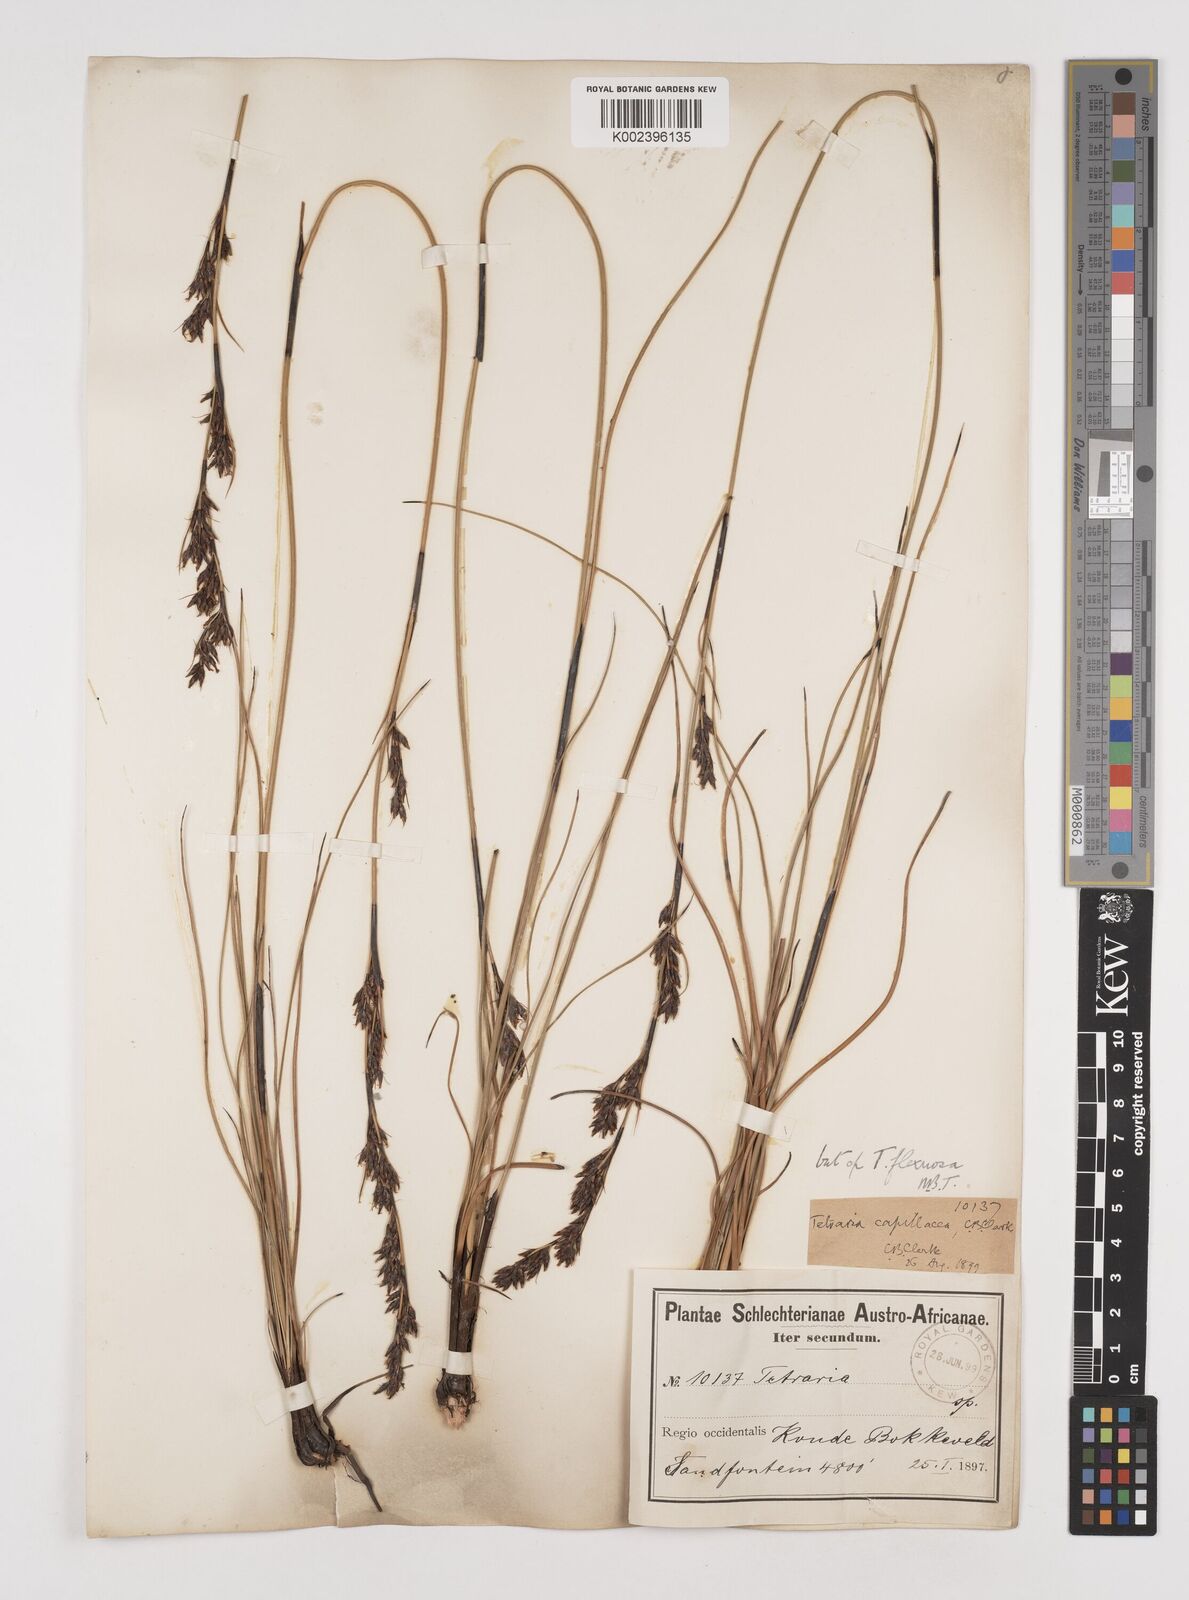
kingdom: Plantae
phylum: Tracheophyta
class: Liliopsida
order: Poales
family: Cyperaceae
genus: Tetraria
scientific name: Tetraria flexuosa
